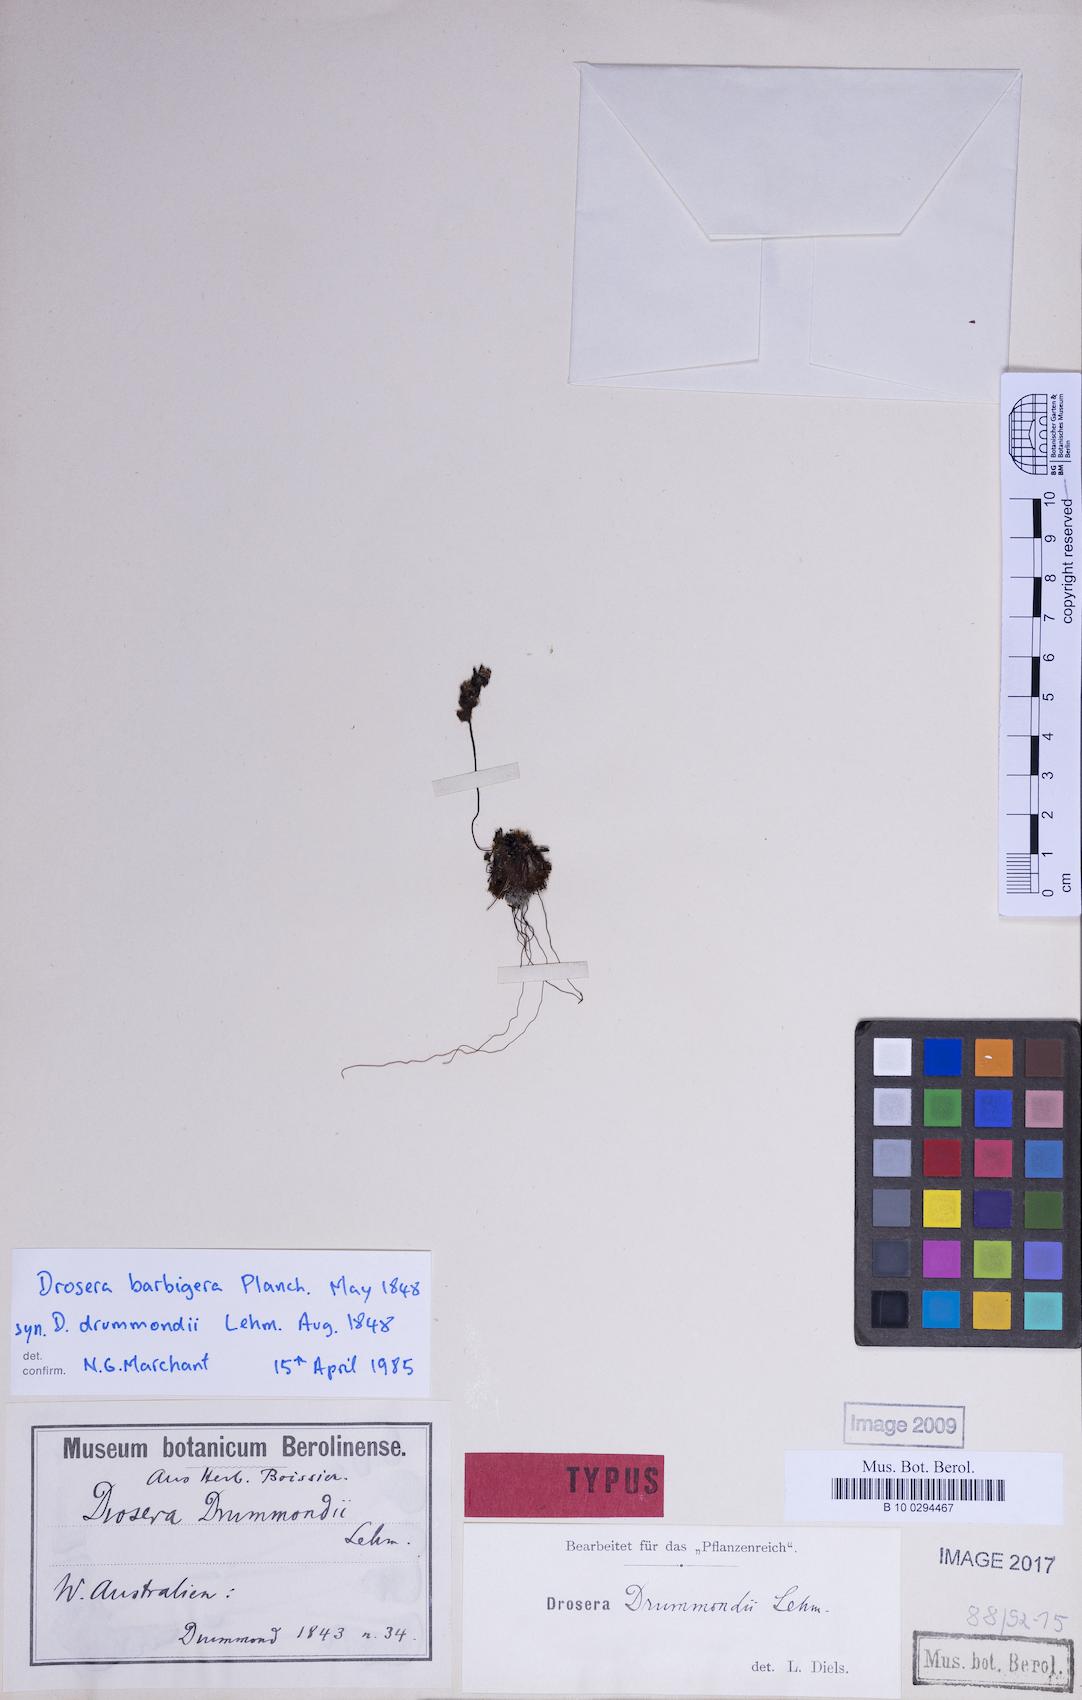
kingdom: Plantae
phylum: Tracheophyta
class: Magnoliopsida
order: Caryophyllales
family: Droseraceae
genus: Drosera
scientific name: Drosera barbigera
